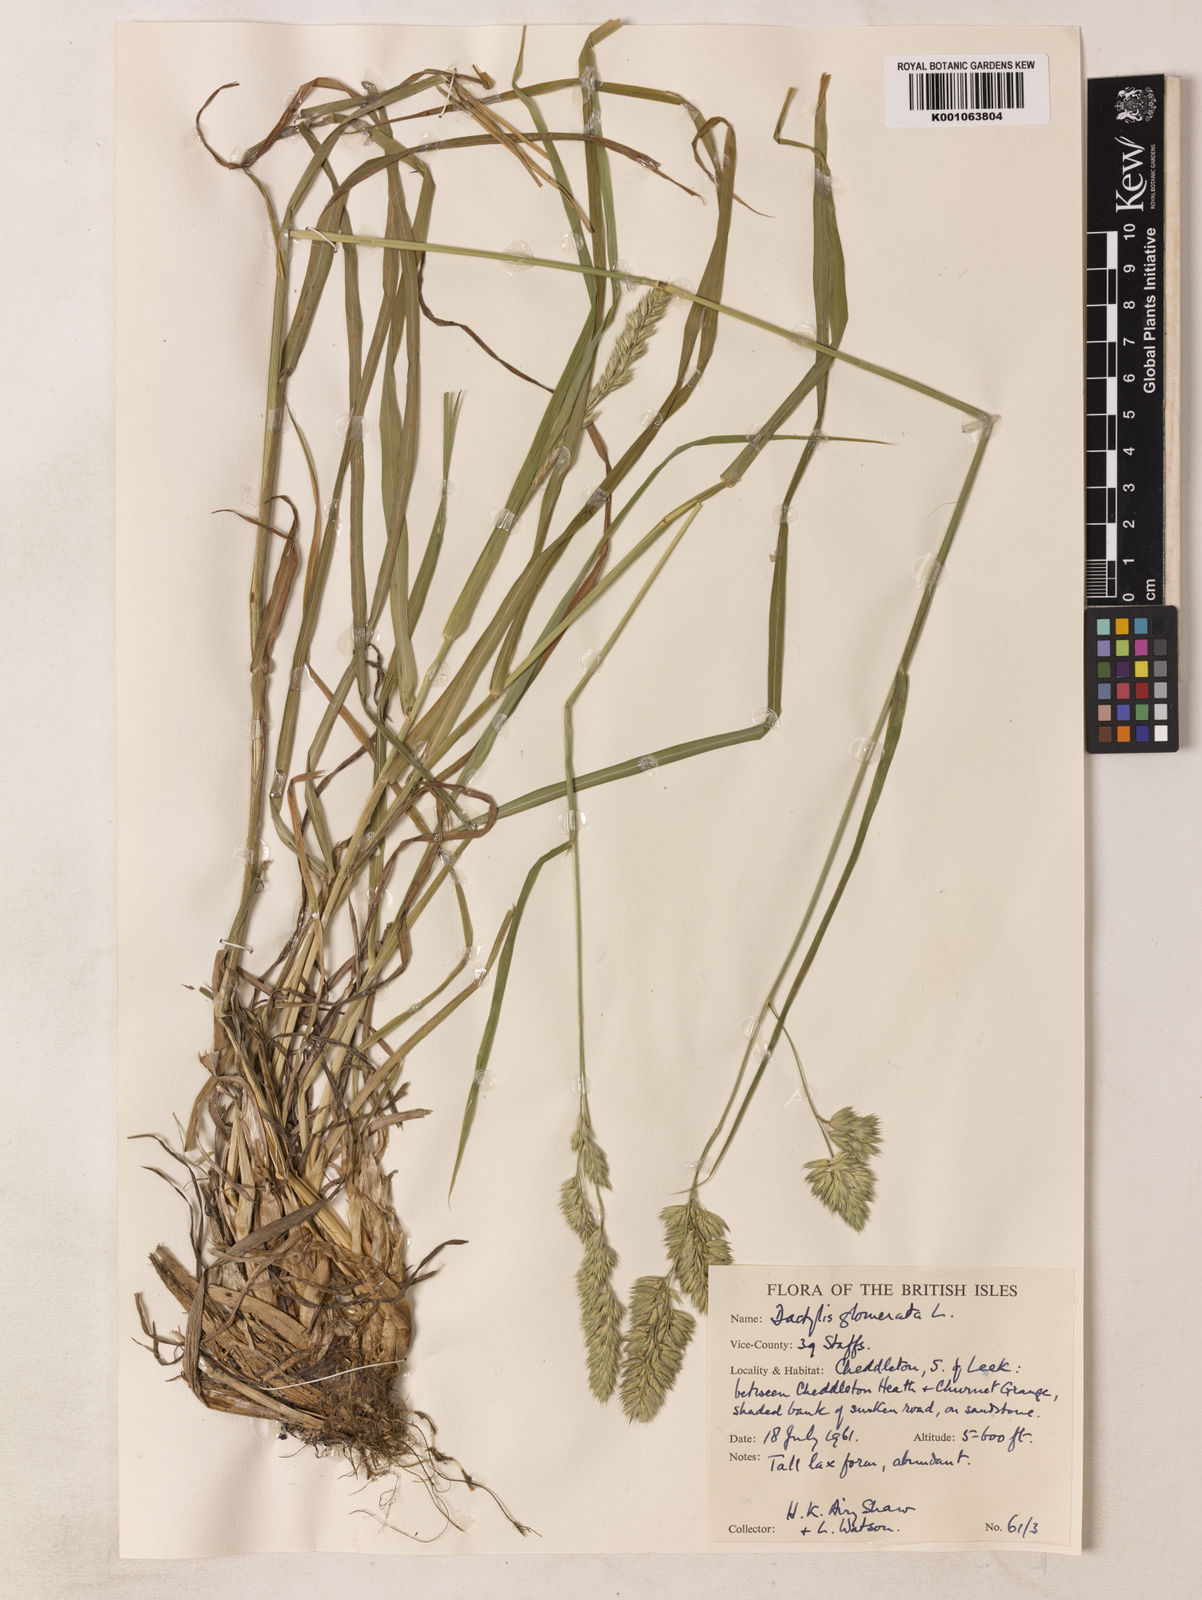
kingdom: Plantae
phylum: Tracheophyta
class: Liliopsida
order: Poales
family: Poaceae
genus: Dactylis
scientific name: Dactylis glomerata
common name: Orchardgrass
